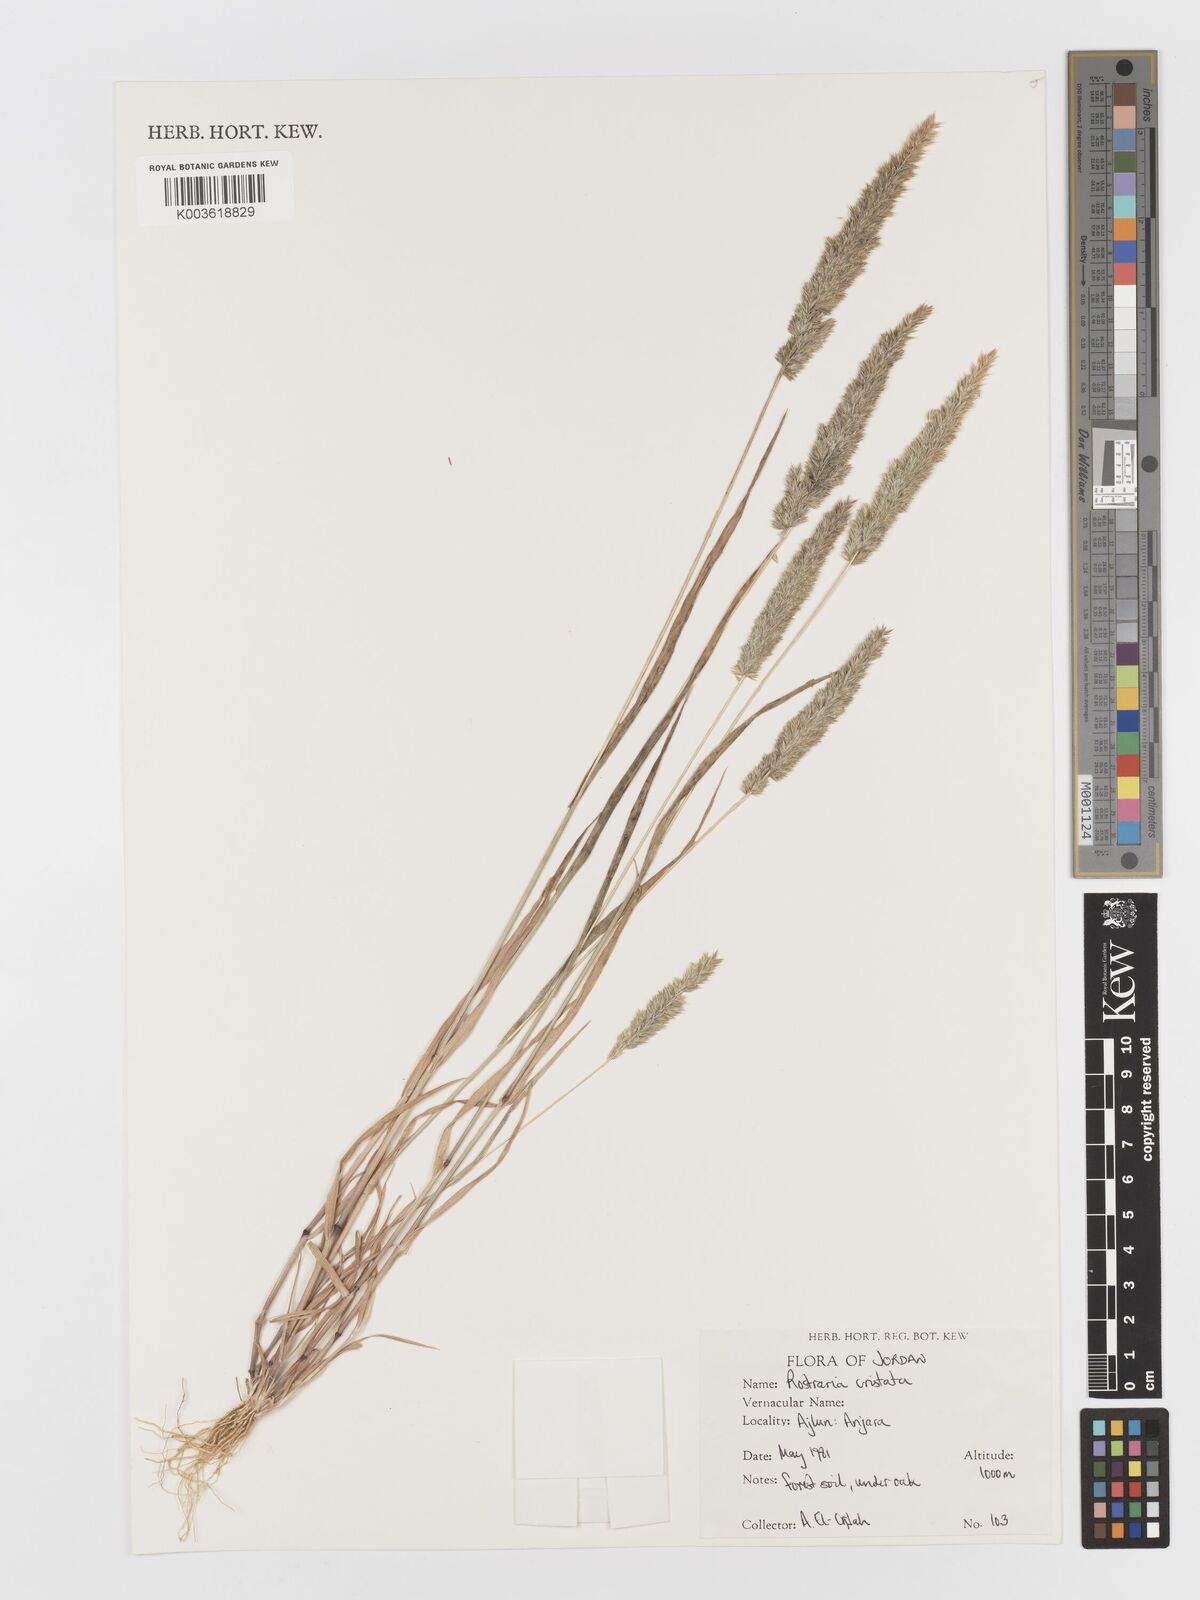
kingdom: Plantae
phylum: Tracheophyta
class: Liliopsida
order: Poales
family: Poaceae
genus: Rostraria
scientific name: Rostraria cristata
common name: Mediterranean hair-grass
